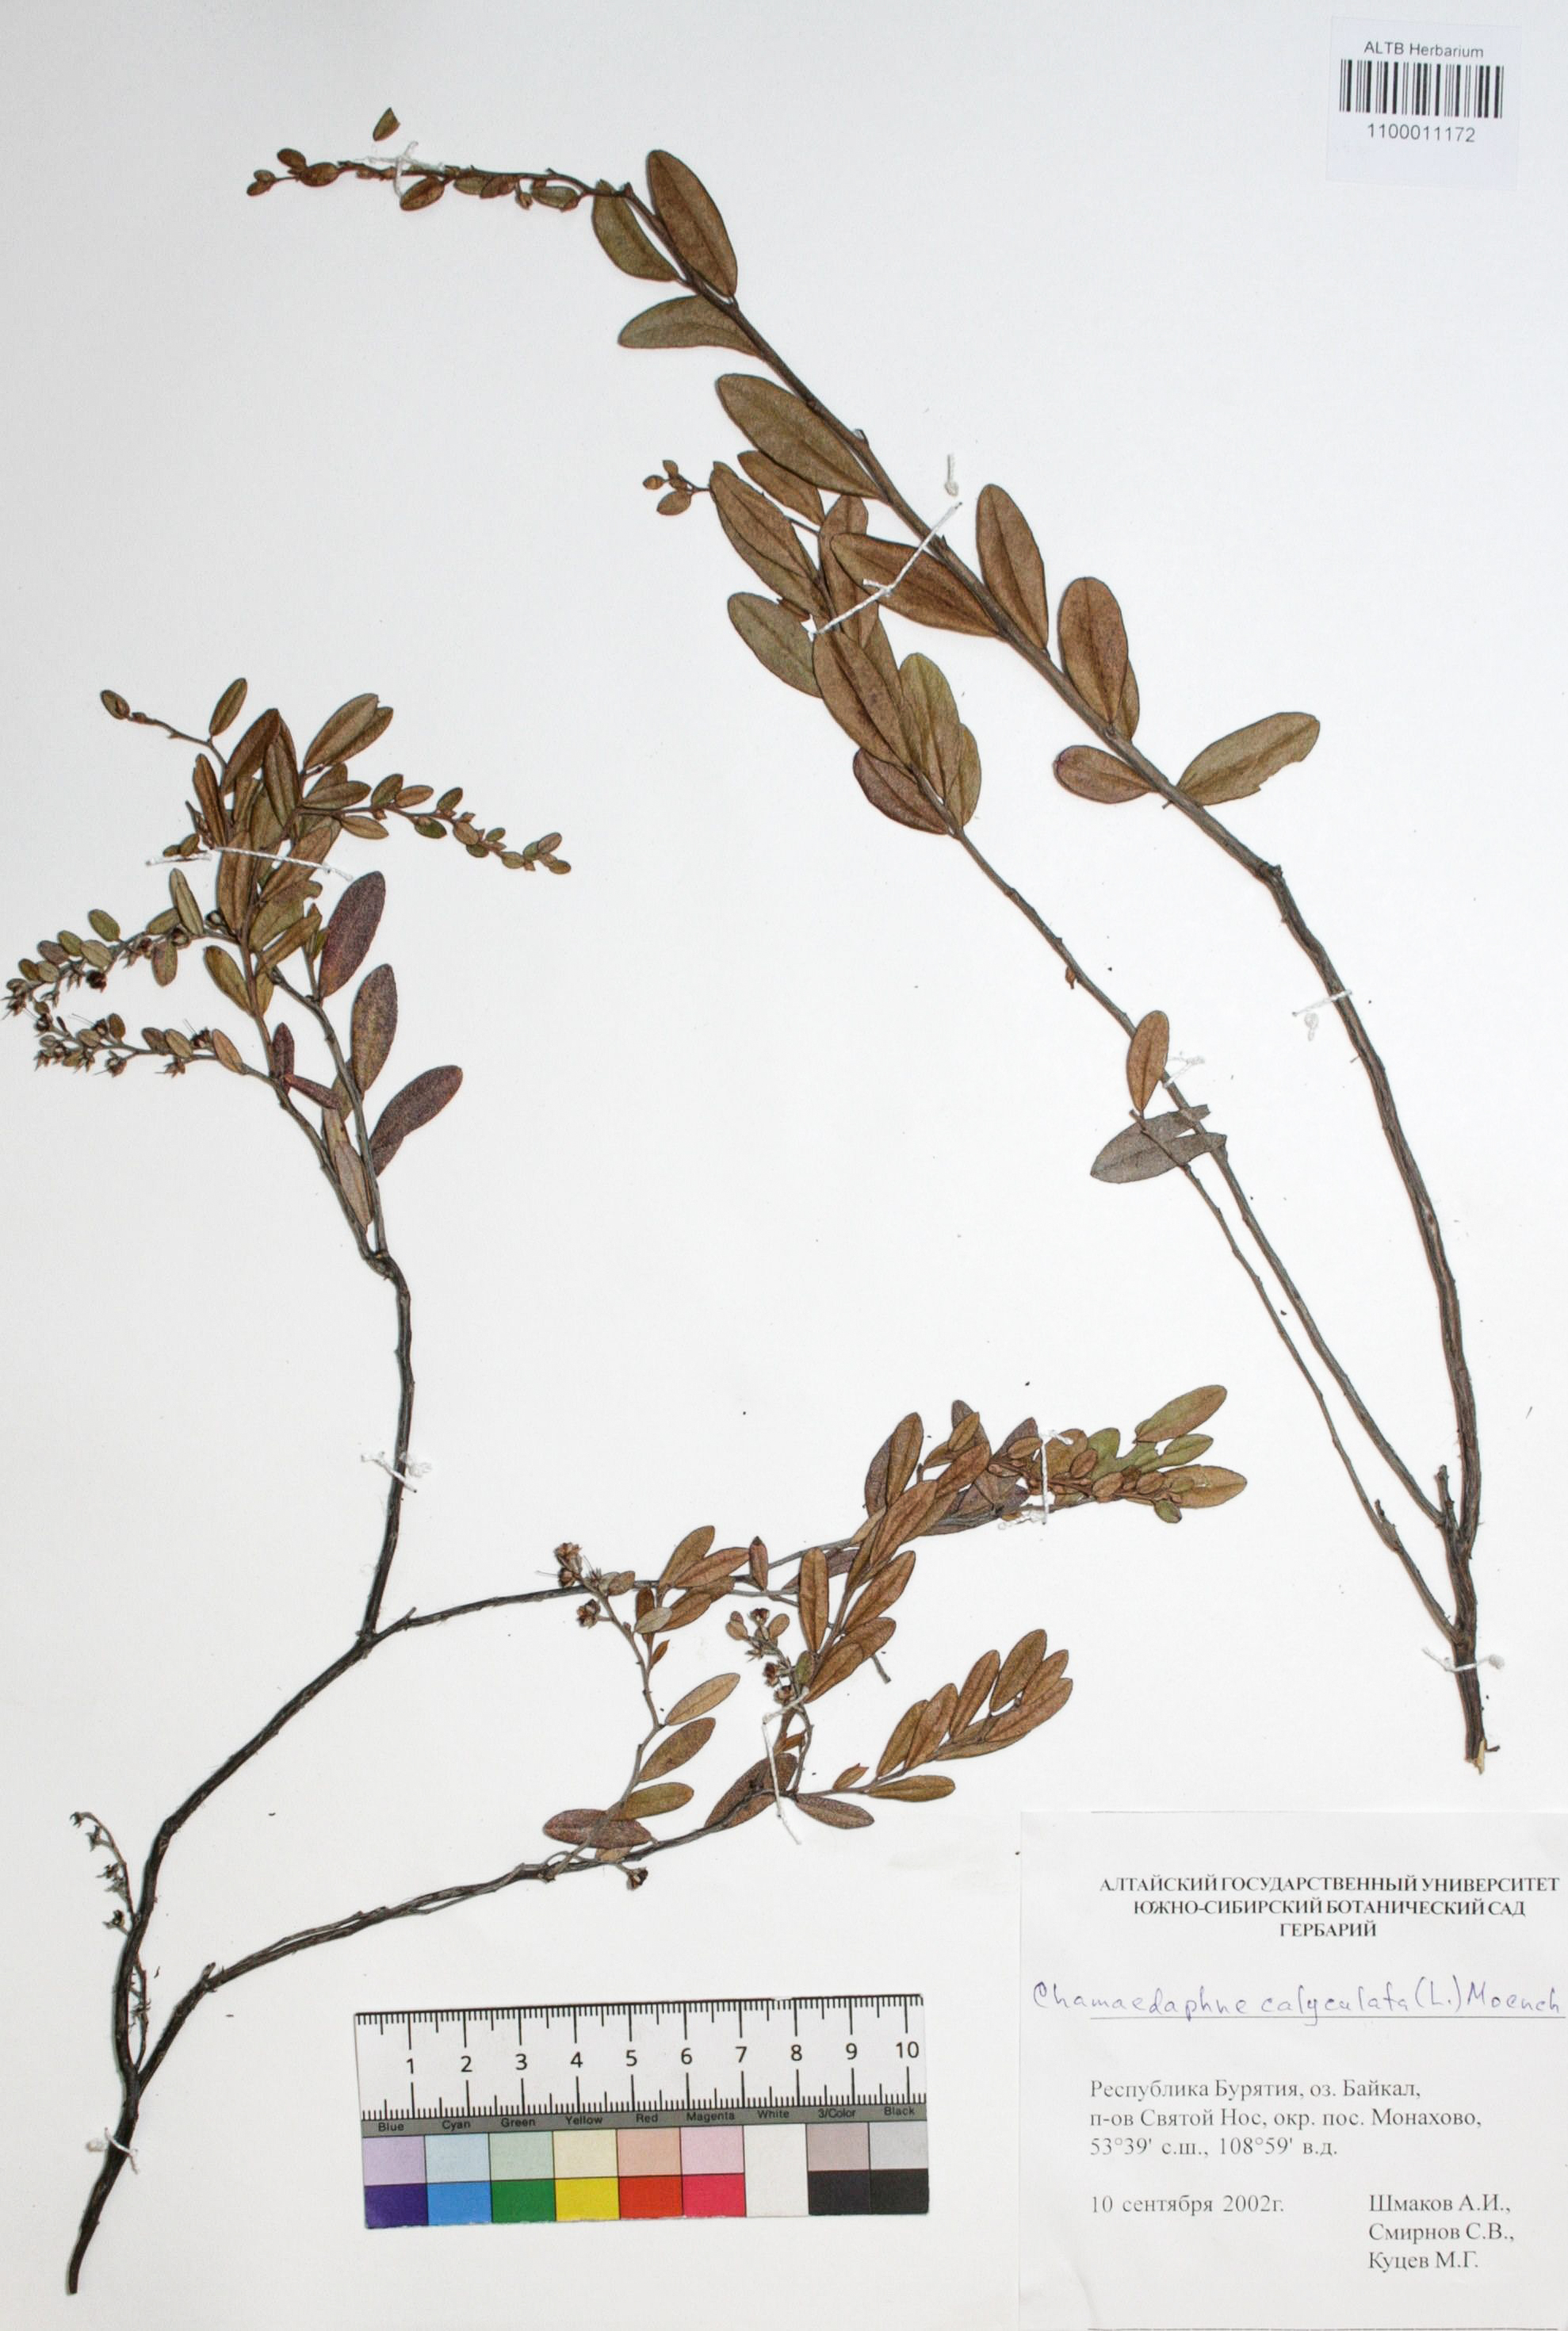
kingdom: Plantae
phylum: Tracheophyta
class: Magnoliopsida
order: Ericales
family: Ericaceae
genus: Chamaedaphne
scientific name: Chamaedaphne calyculata
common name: Leatherleaf
